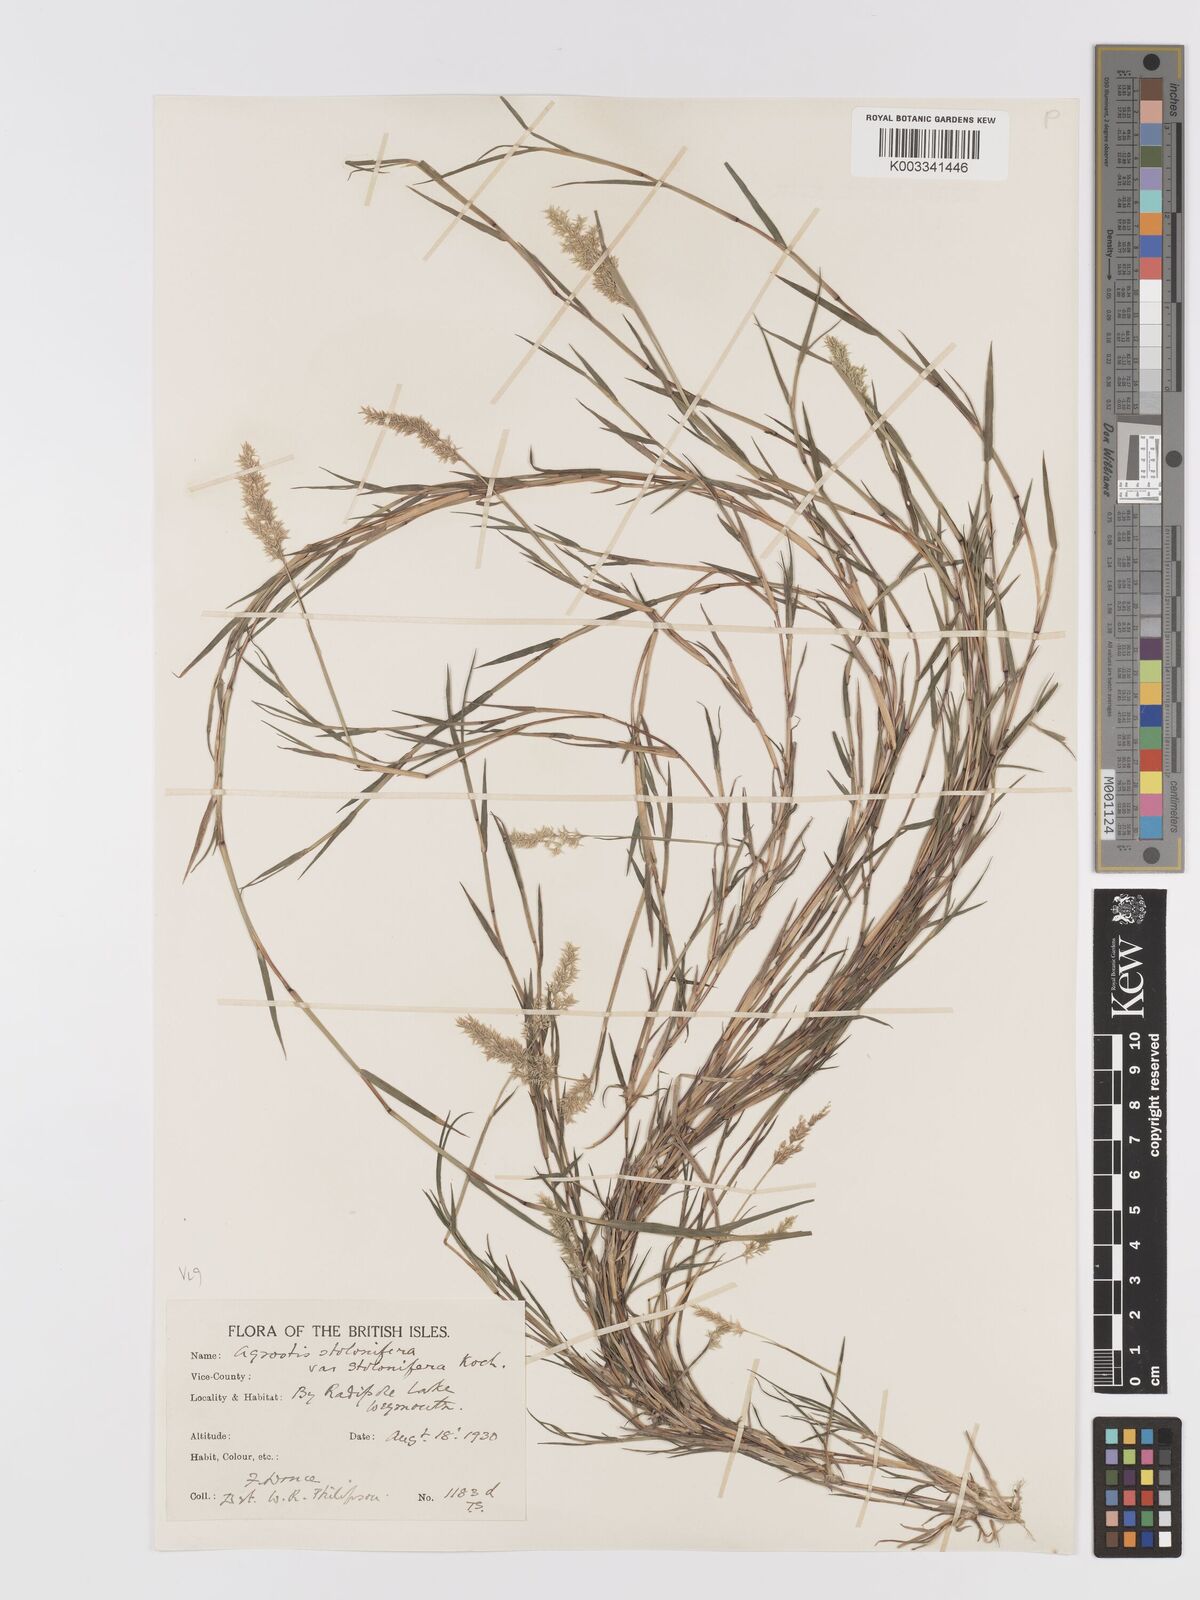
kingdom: Plantae
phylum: Tracheophyta
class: Liliopsida
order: Poales
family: Poaceae
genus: Agrostis
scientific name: Agrostis stolonifera
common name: Creeping bentgrass
